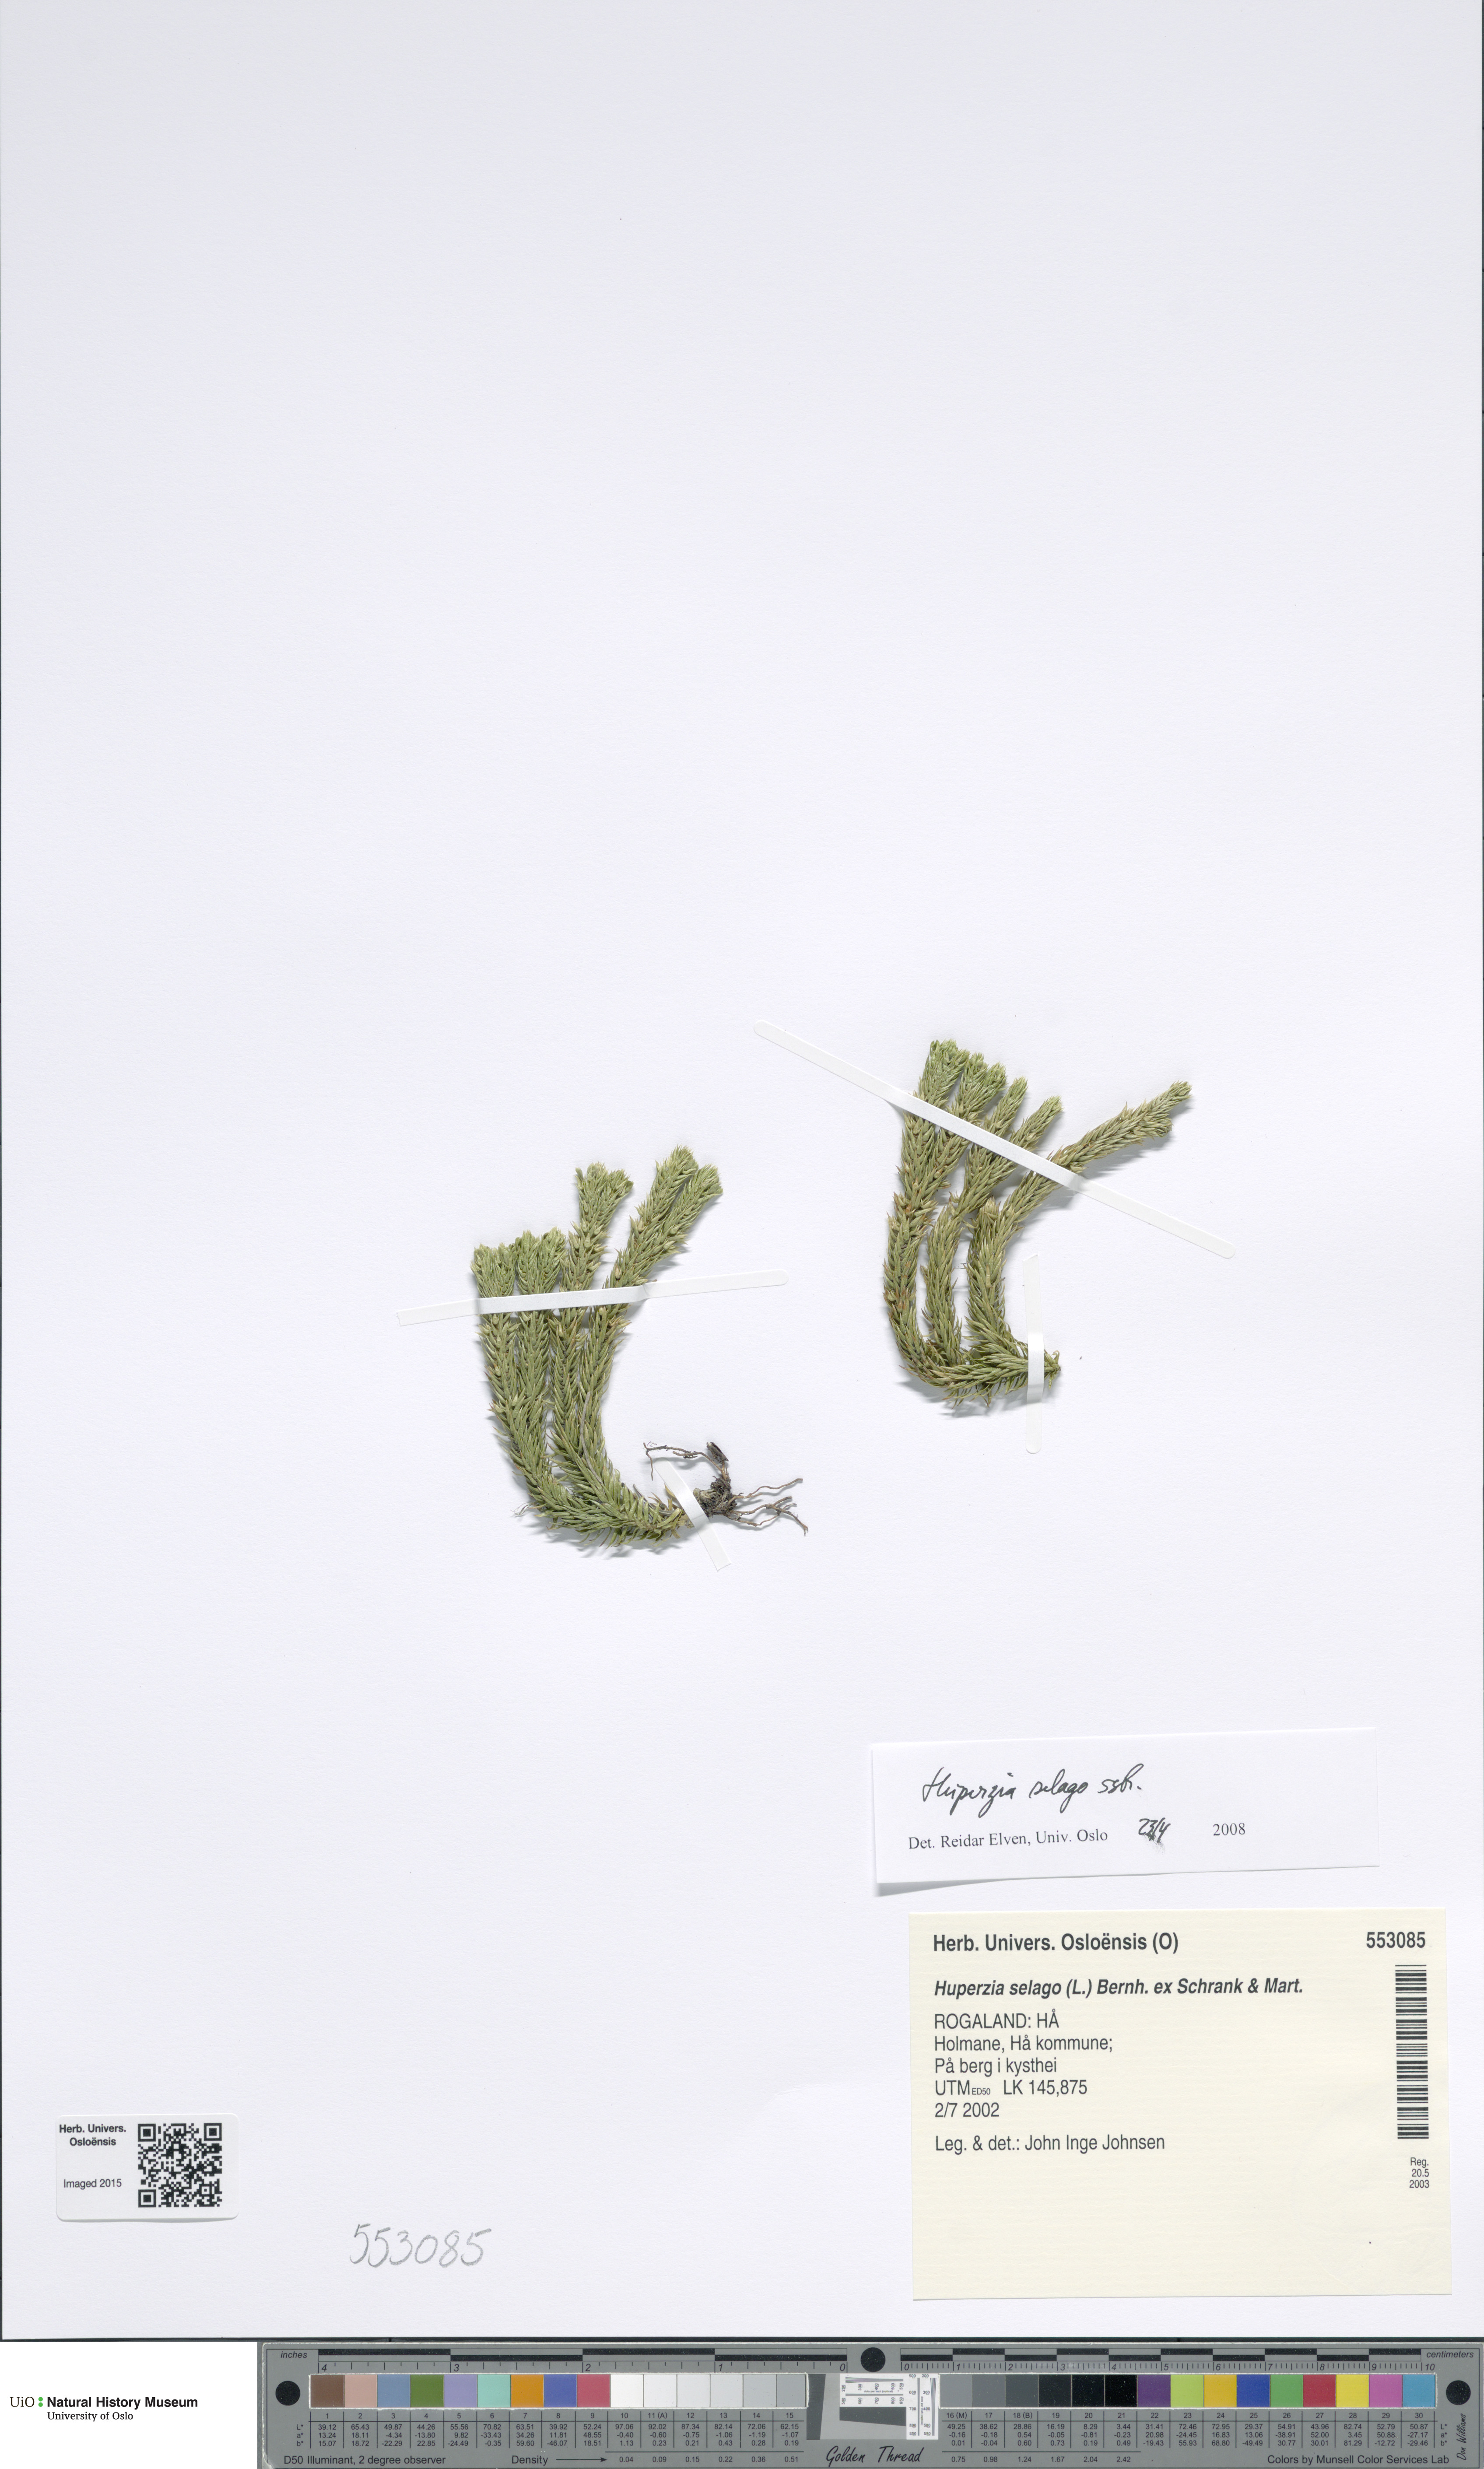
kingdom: Plantae
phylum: Tracheophyta
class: Lycopodiopsida
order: Lycopodiales
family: Lycopodiaceae
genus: Huperzia
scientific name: Huperzia selago
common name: Northern firmoss
